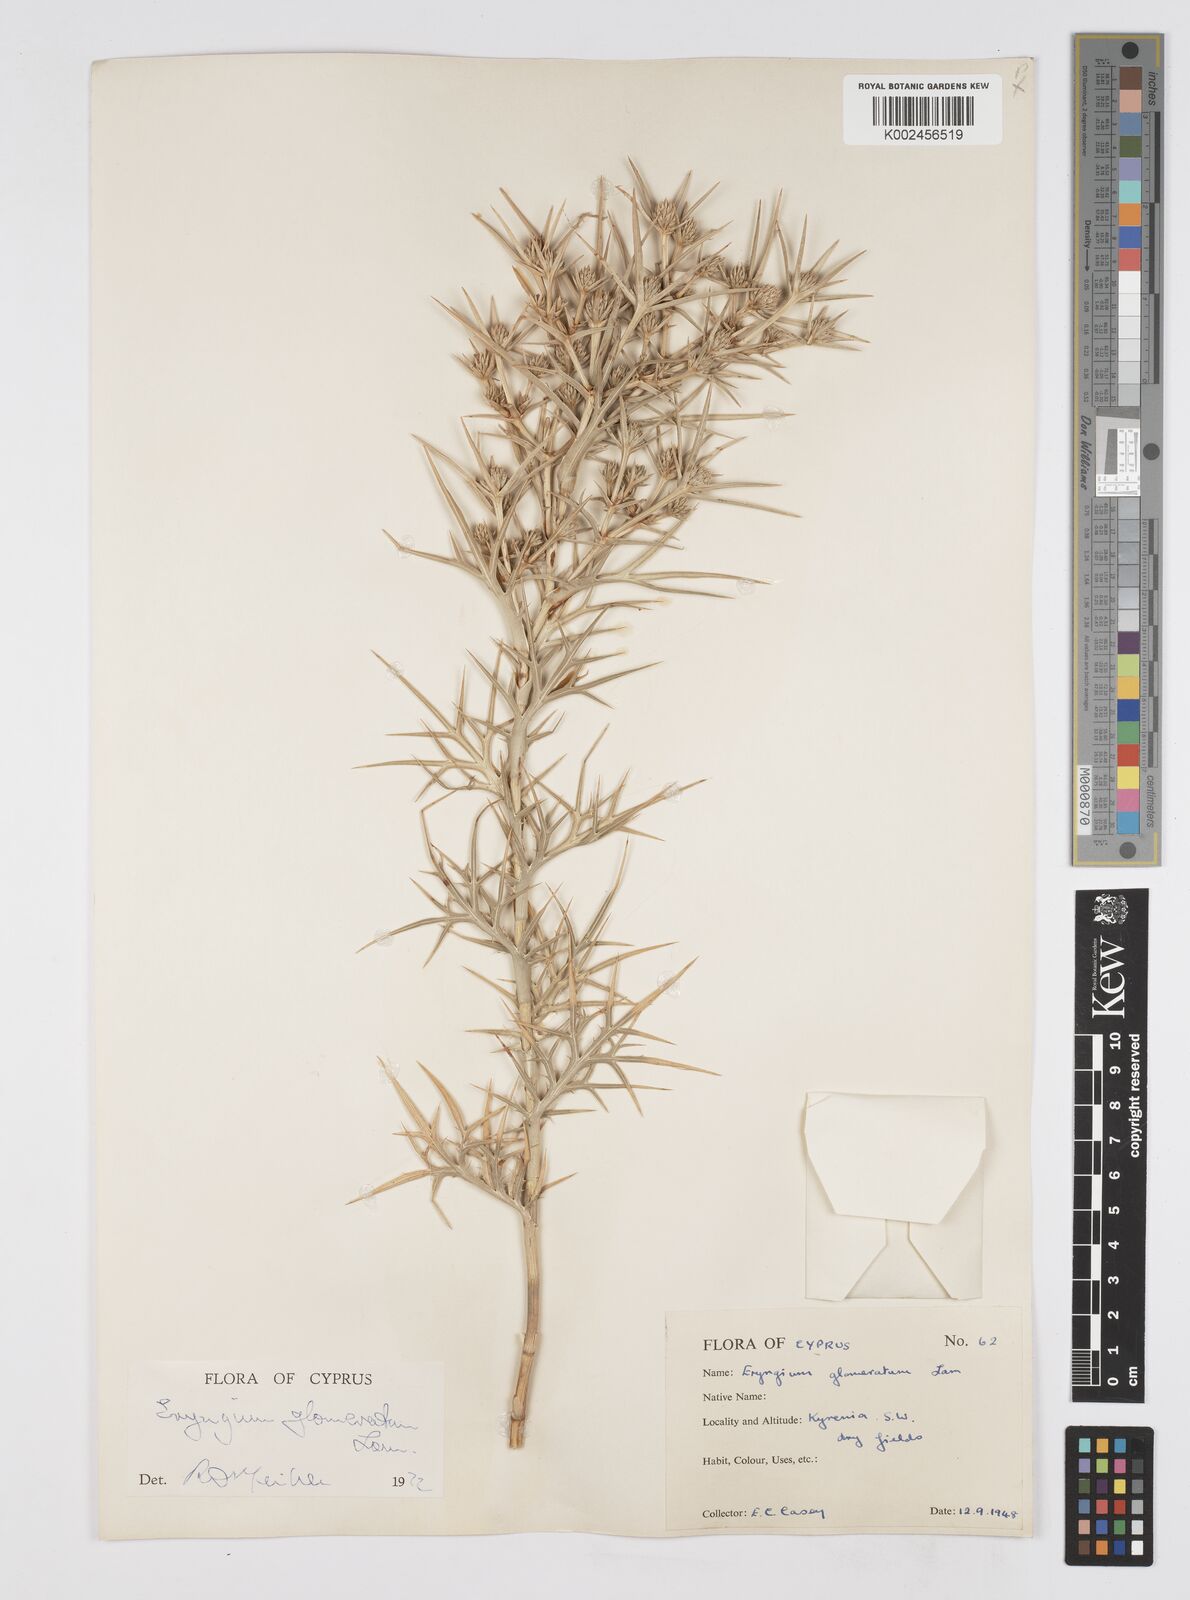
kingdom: Plantae
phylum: Tracheophyta
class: Magnoliopsida
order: Apiales
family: Apiaceae
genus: Eryngium
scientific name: Eryngium glomeratum
